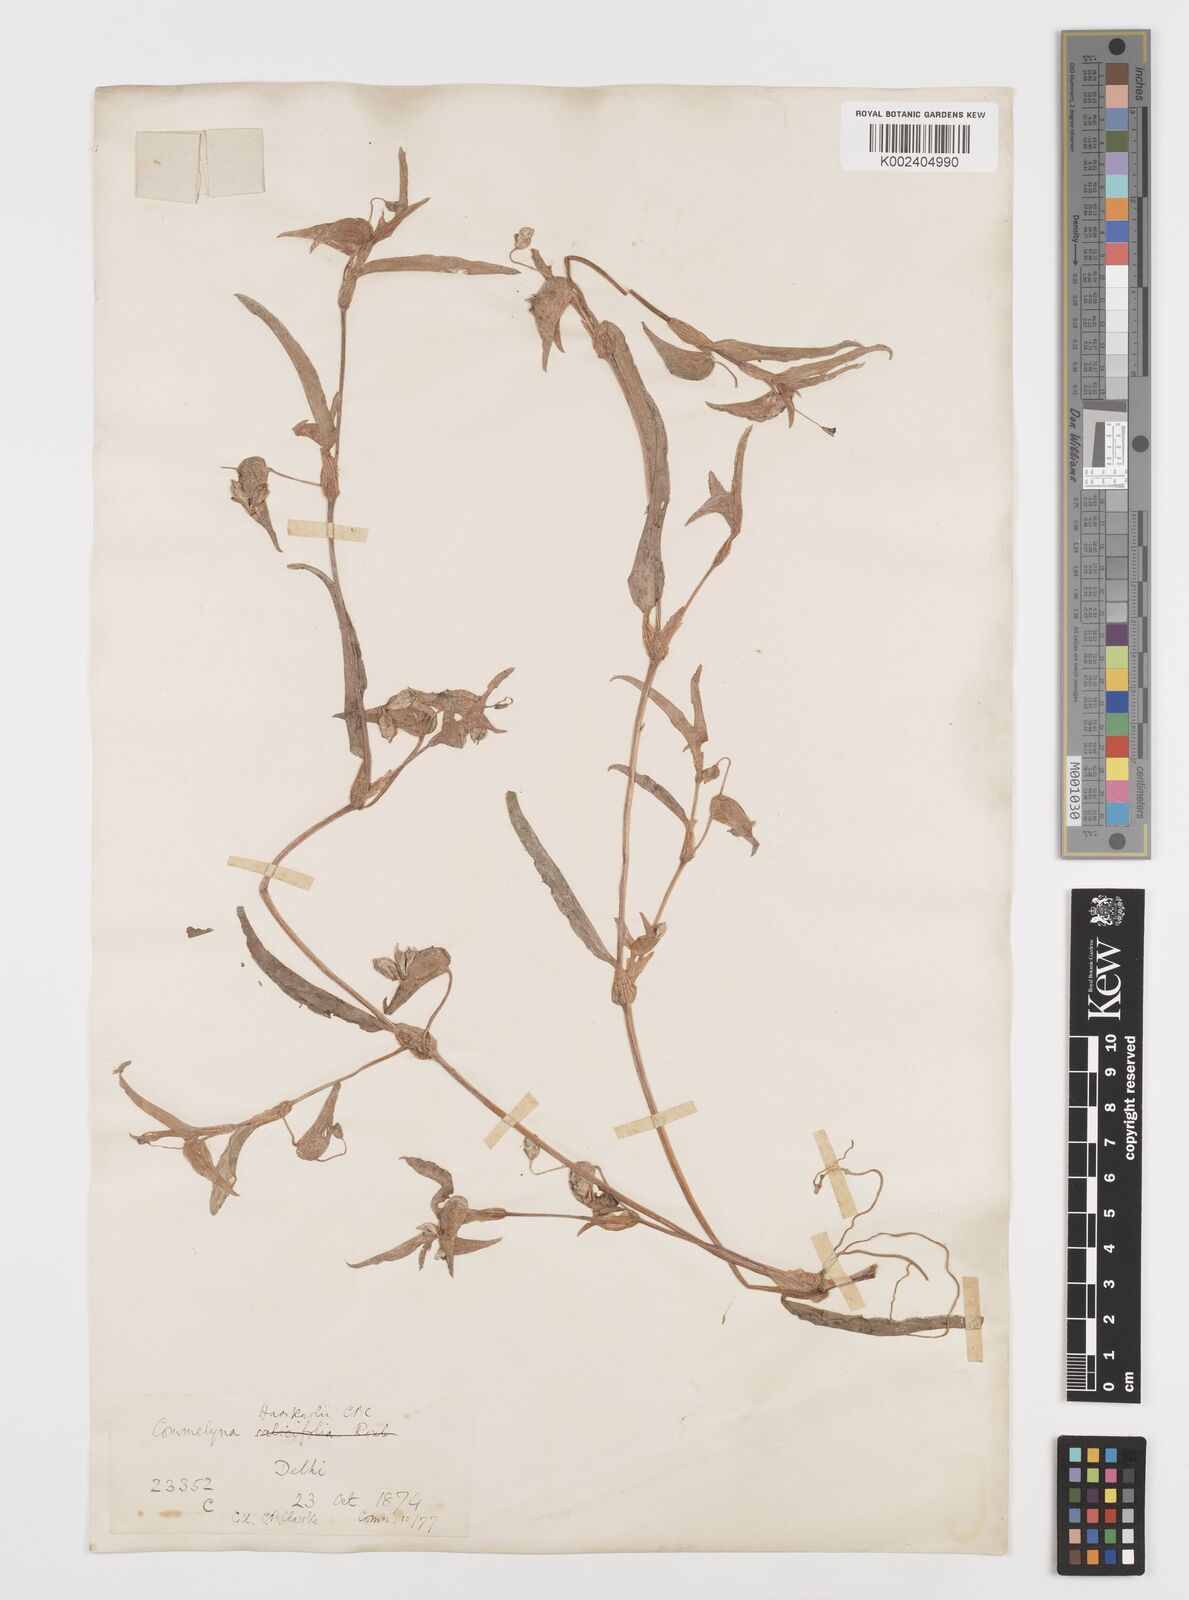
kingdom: Plantae
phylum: Tracheophyta
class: Liliopsida
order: Commelinales
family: Commelinaceae
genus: Commelina
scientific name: Commelina caroliniana
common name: Carolina dayflower
